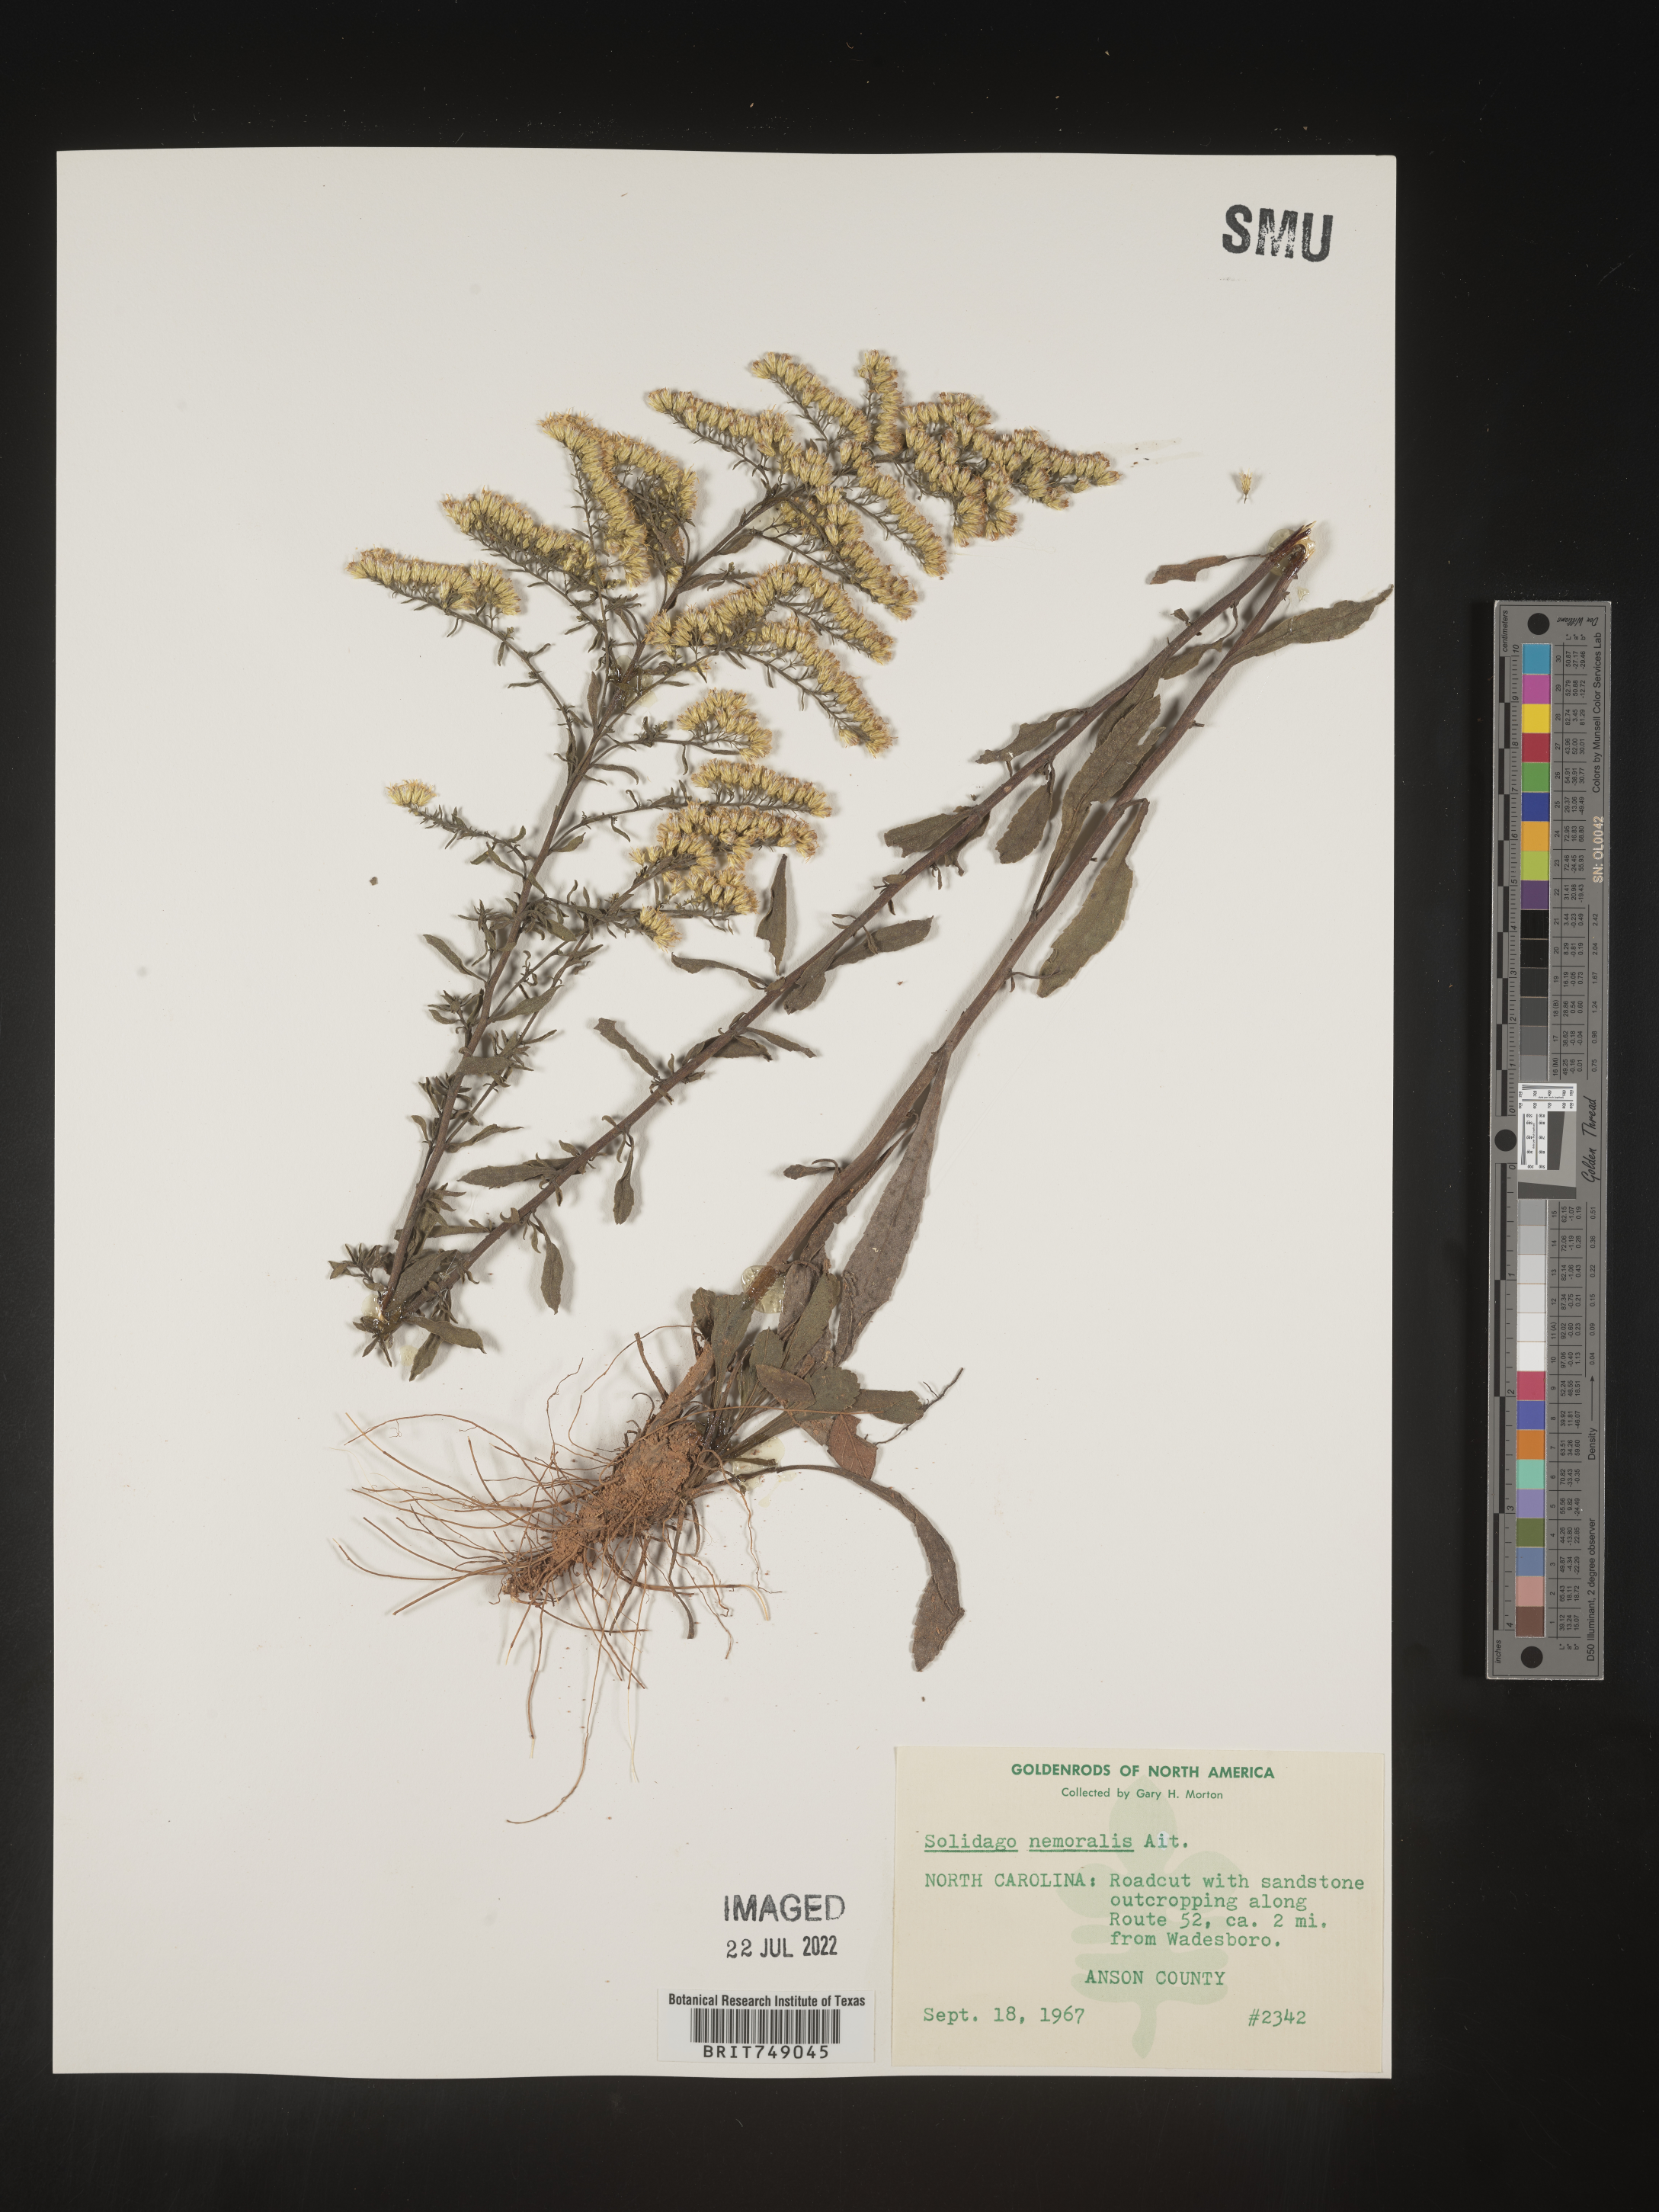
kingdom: Plantae
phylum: Tracheophyta
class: Magnoliopsida
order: Asterales
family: Asteraceae
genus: Solidago
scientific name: Solidago nemoralis
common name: Grey goldenrod
